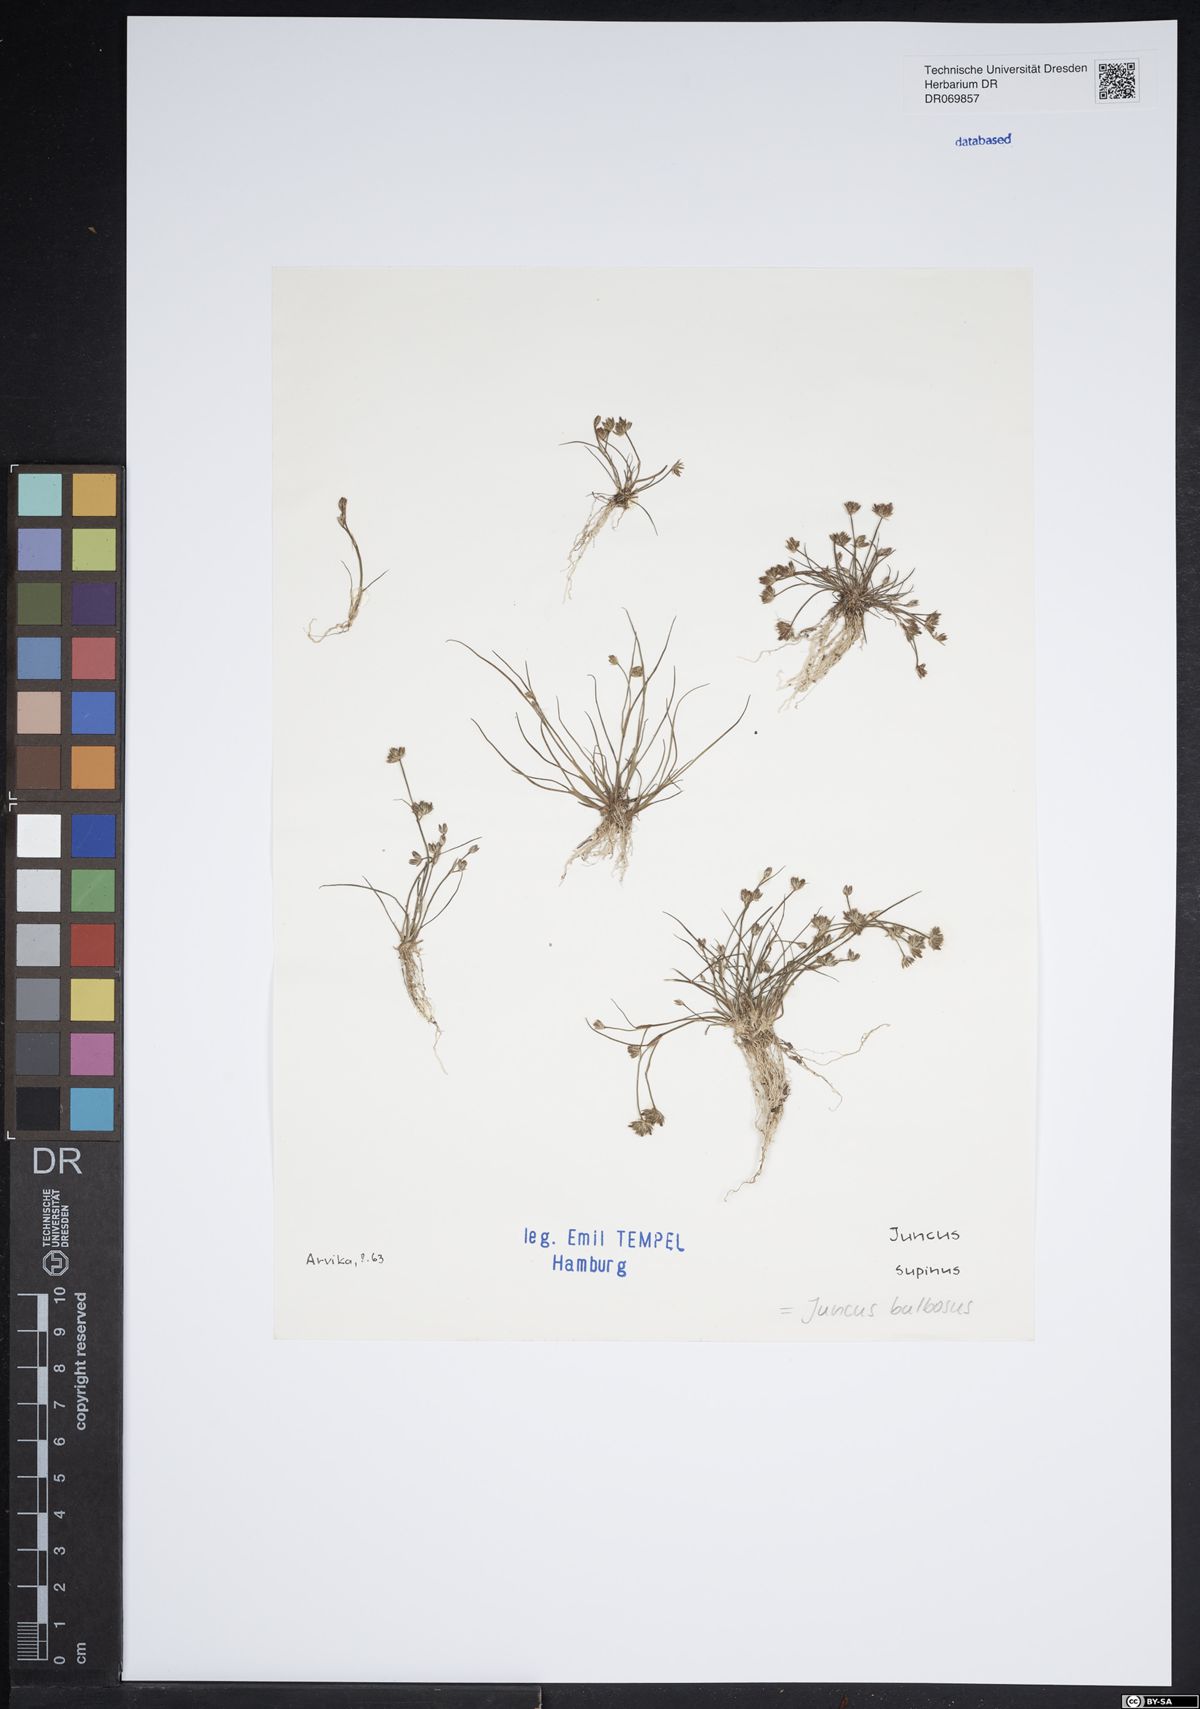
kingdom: Plantae
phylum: Tracheophyta
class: Liliopsida
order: Poales
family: Juncaceae
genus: Juncus
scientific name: Juncus bulbosus
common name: Bulbous rush
